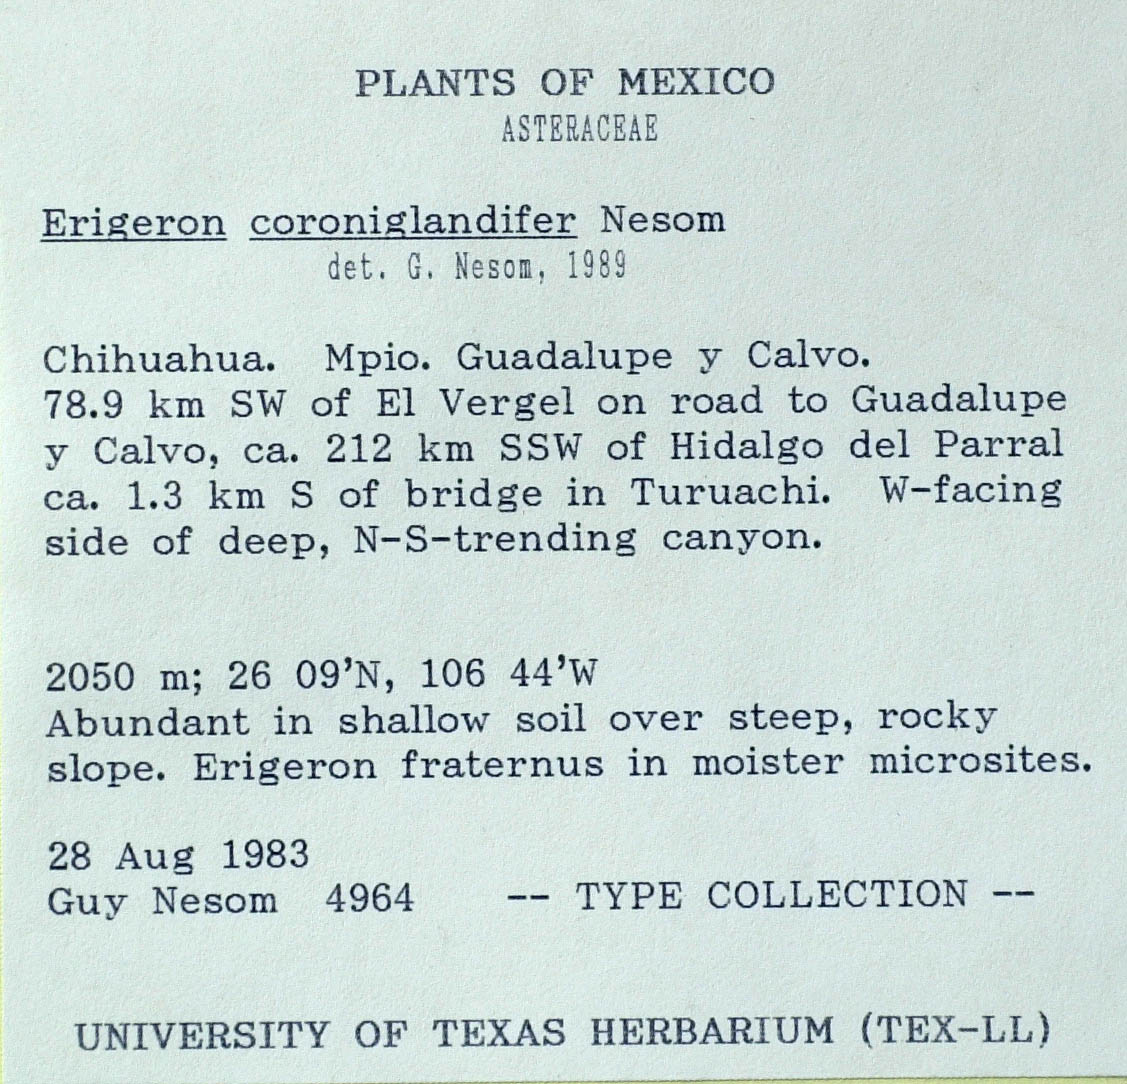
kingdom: Plantae
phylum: Tracheophyta
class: Magnoliopsida
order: Asterales
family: Asteraceae
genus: Erigeron
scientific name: Erigeron coroniglandifer
